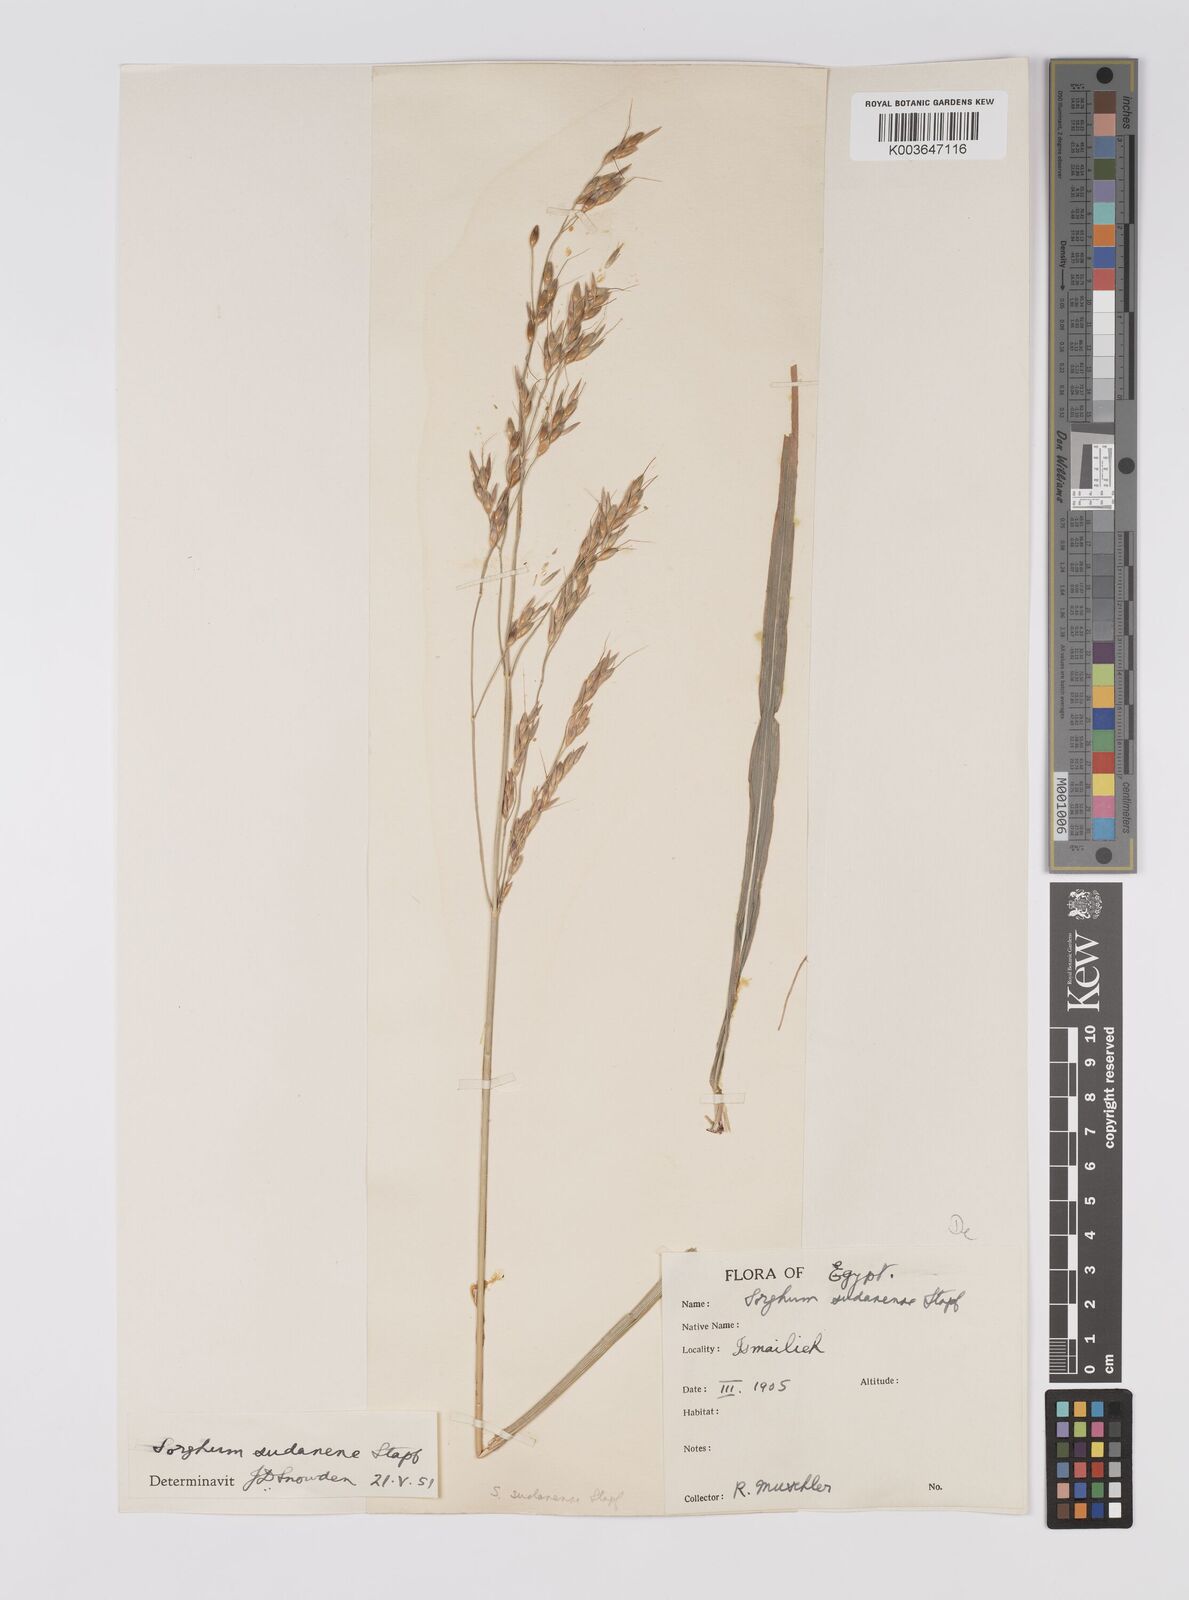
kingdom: Plantae
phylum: Tracheophyta
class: Liliopsida
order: Poales
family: Poaceae
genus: Sorghum
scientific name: Sorghum drummondii
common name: Sudangrass
